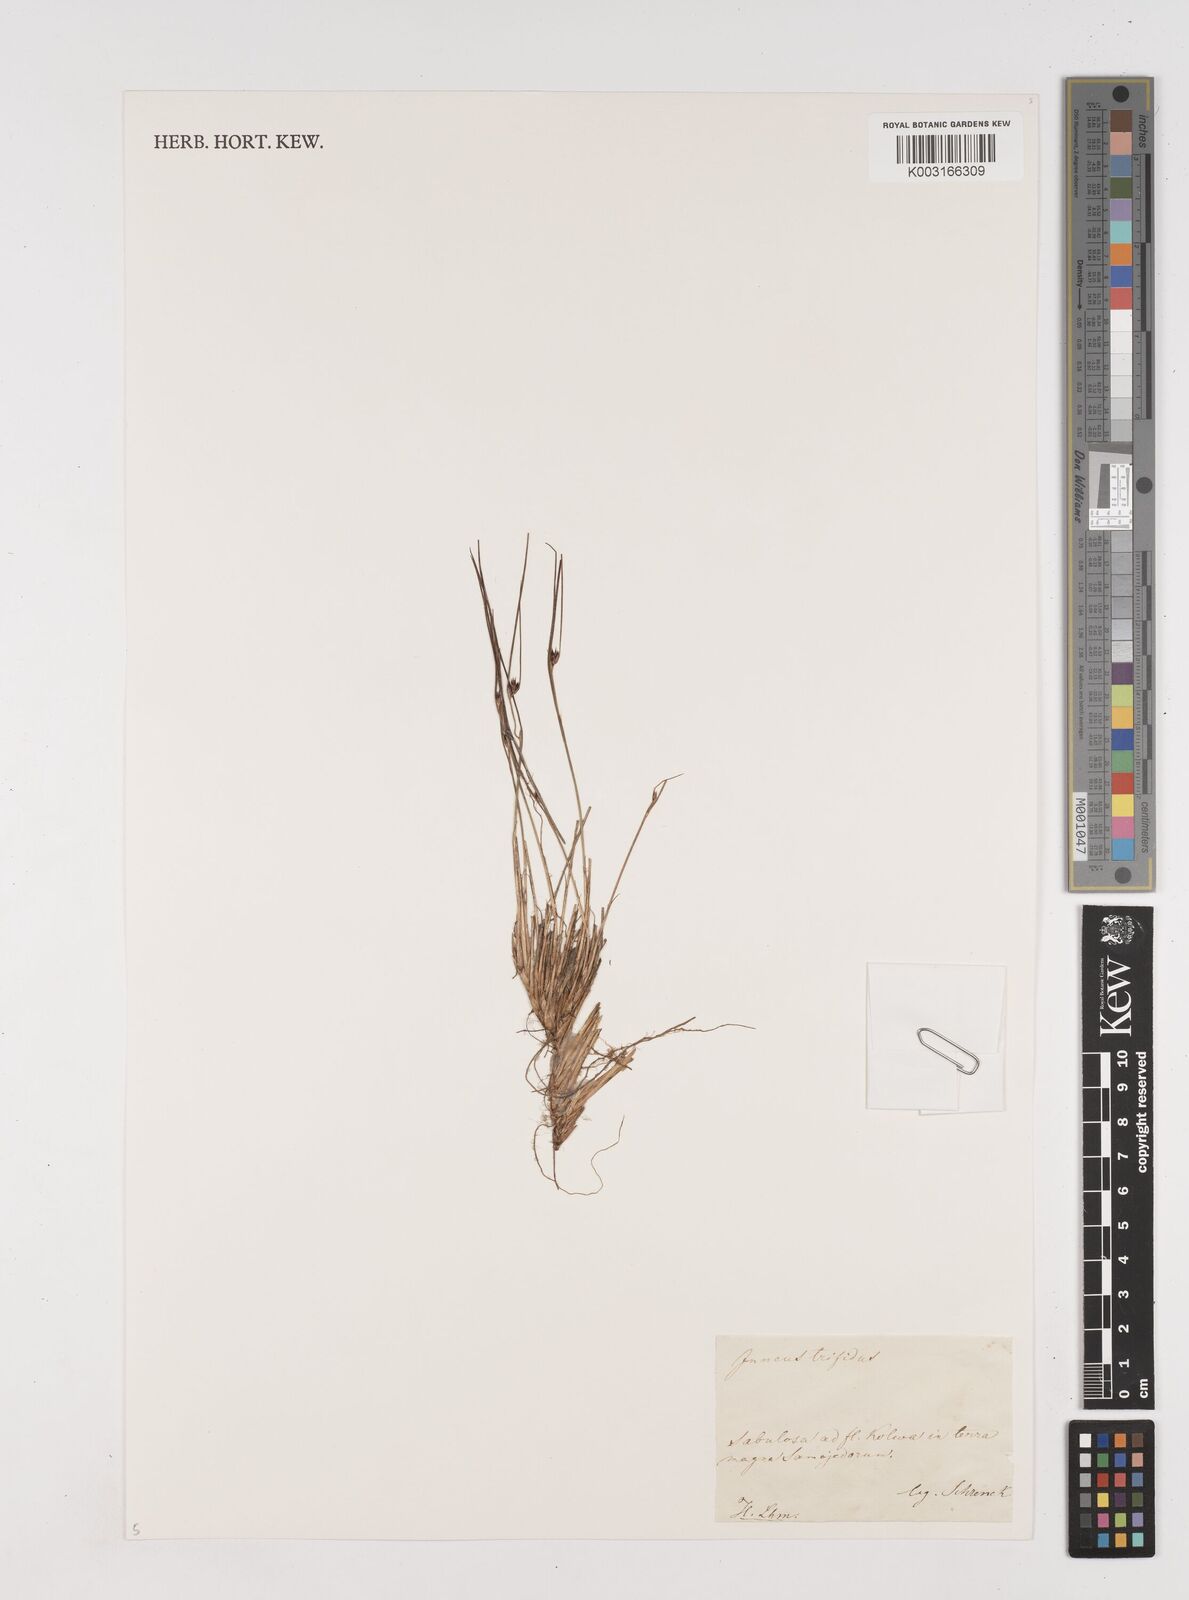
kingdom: Plantae
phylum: Tracheophyta
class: Liliopsida
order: Poales
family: Juncaceae
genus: Oreojuncus
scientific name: Oreojuncus trifidus
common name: Highland rush
